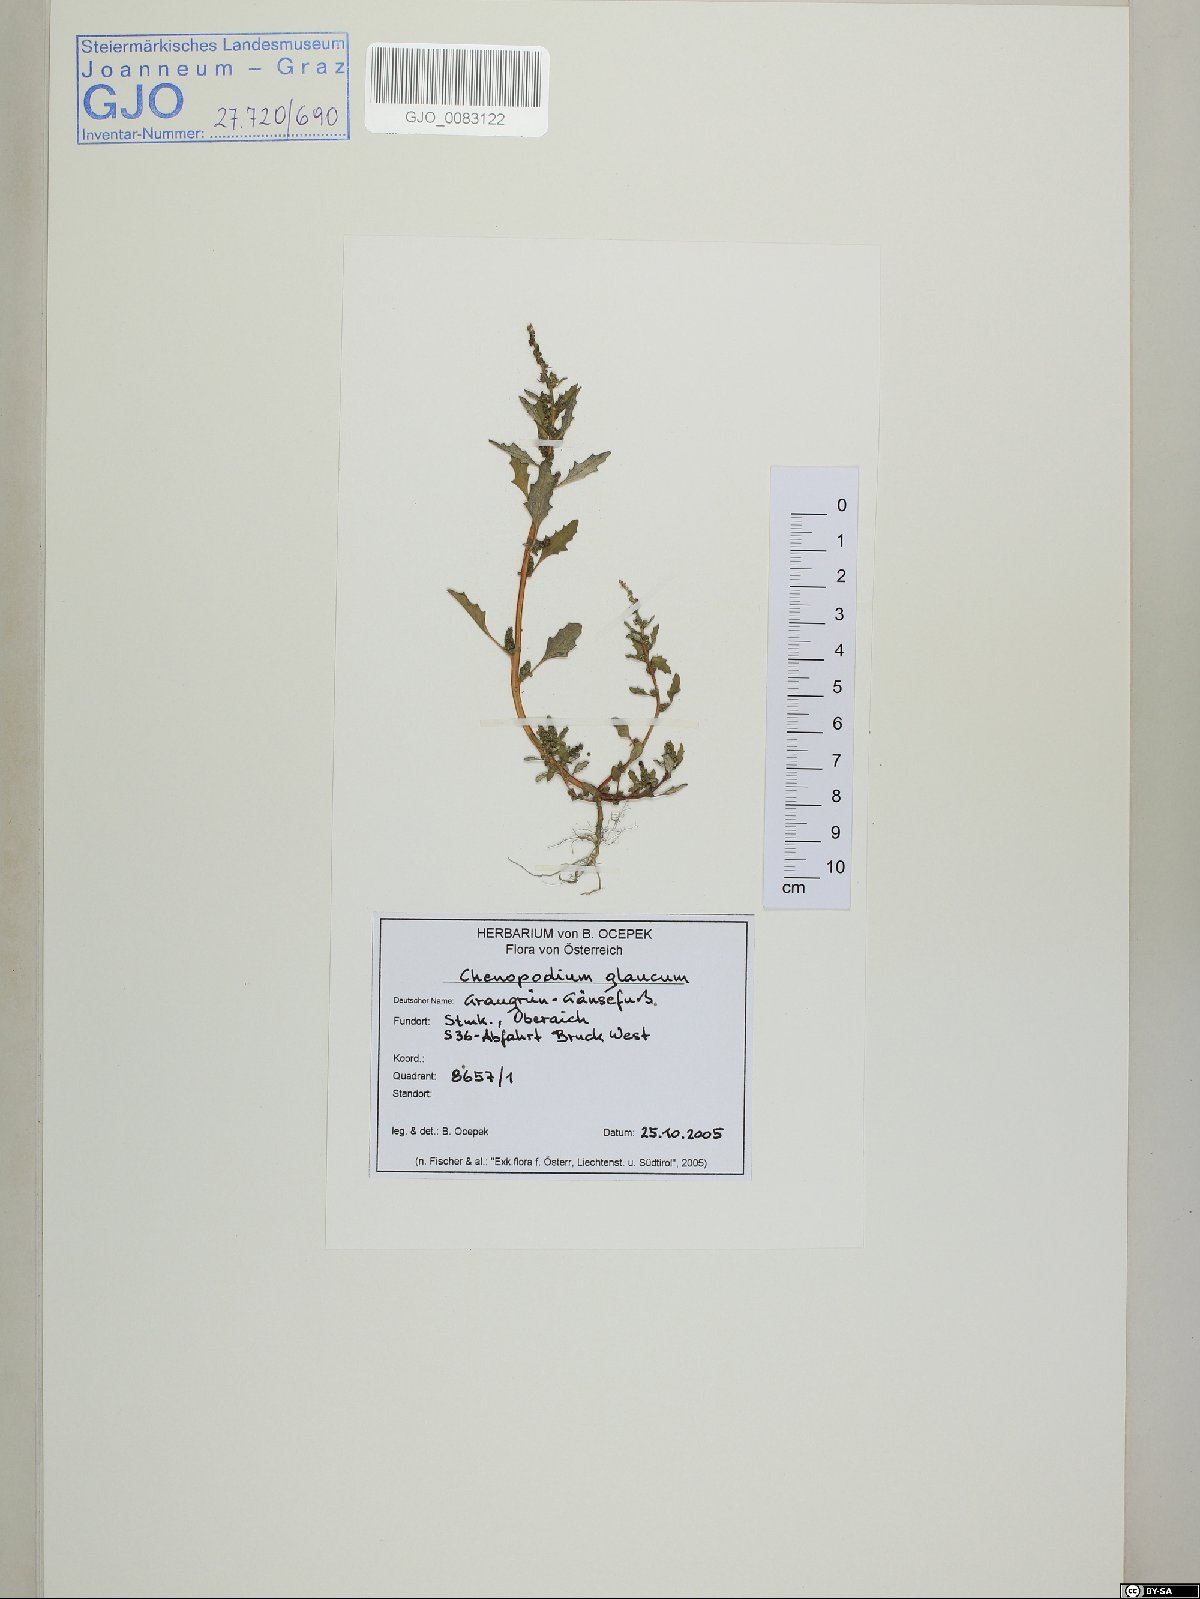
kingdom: Plantae
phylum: Tracheophyta
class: Magnoliopsida
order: Caryophyllales
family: Amaranthaceae
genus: Oxybasis
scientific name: Oxybasis glauca
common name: Glaucous goosefoot
